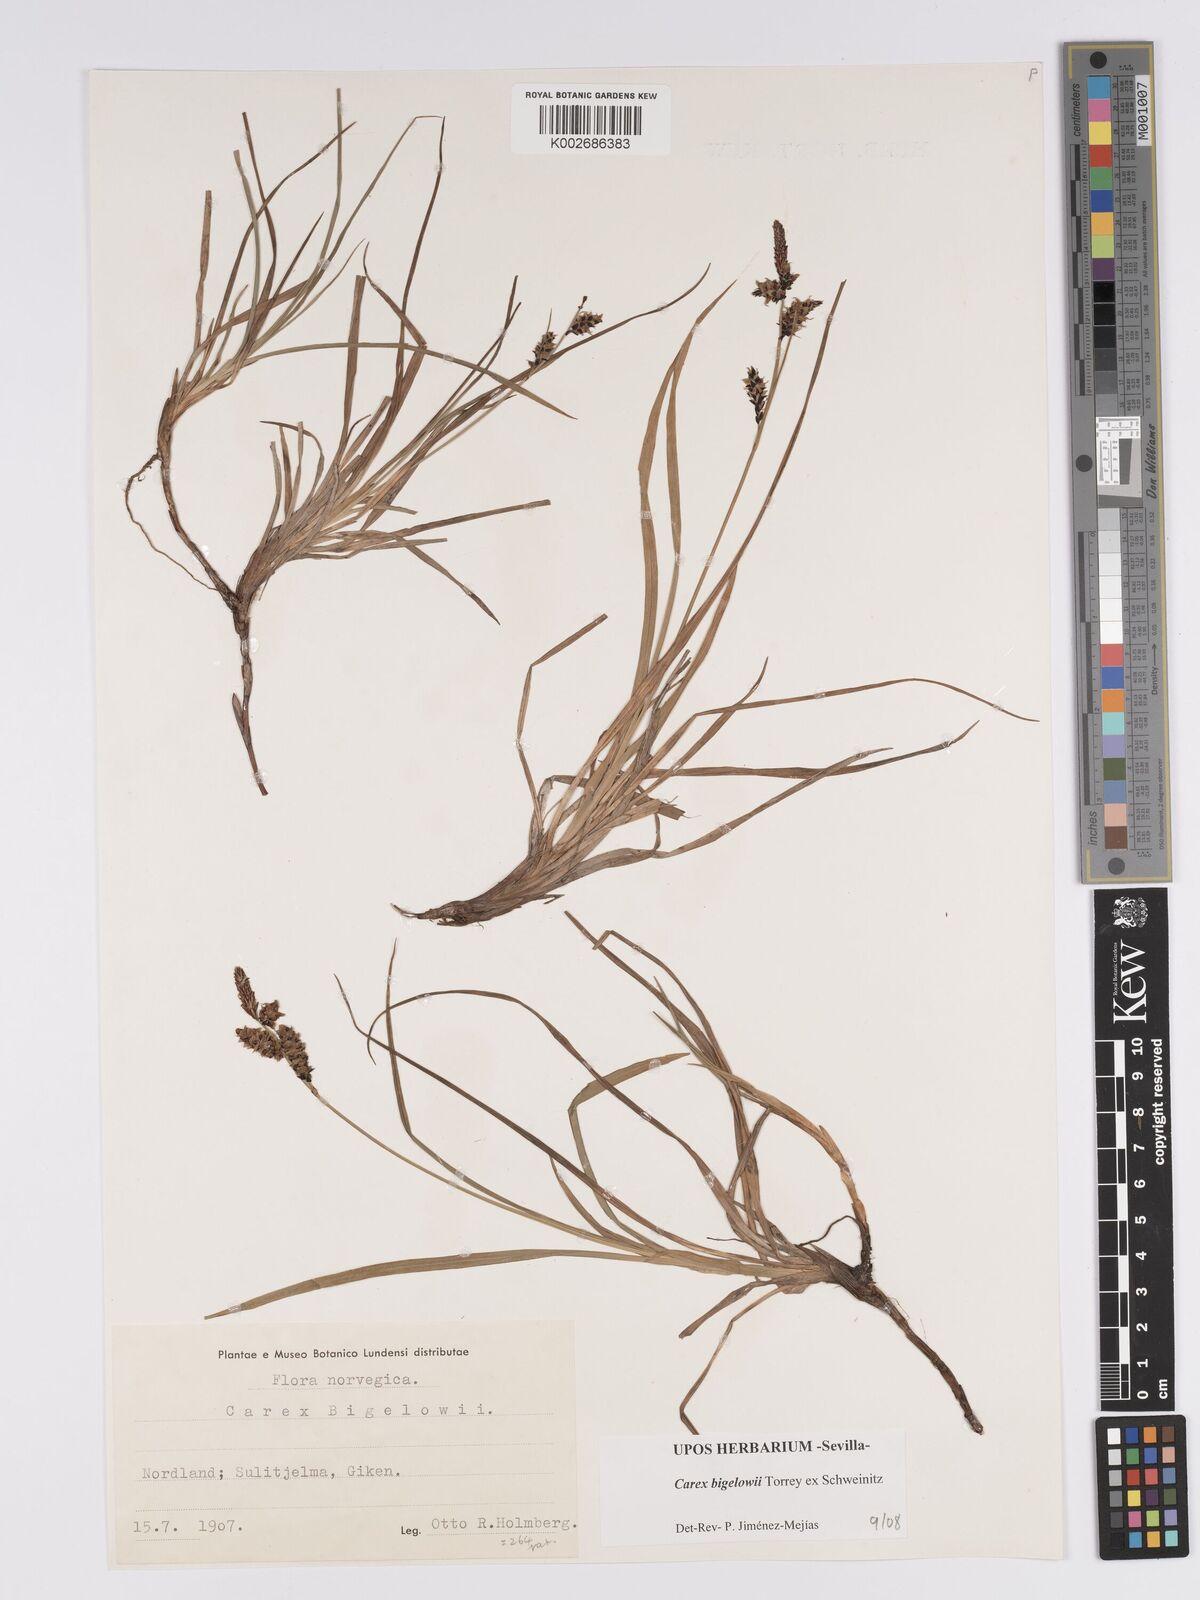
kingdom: Plantae
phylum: Tracheophyta
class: Liliopsida
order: Poales
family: Cyperaceae
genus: Carex
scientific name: Carex bigelowii
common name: Stiff sedge
